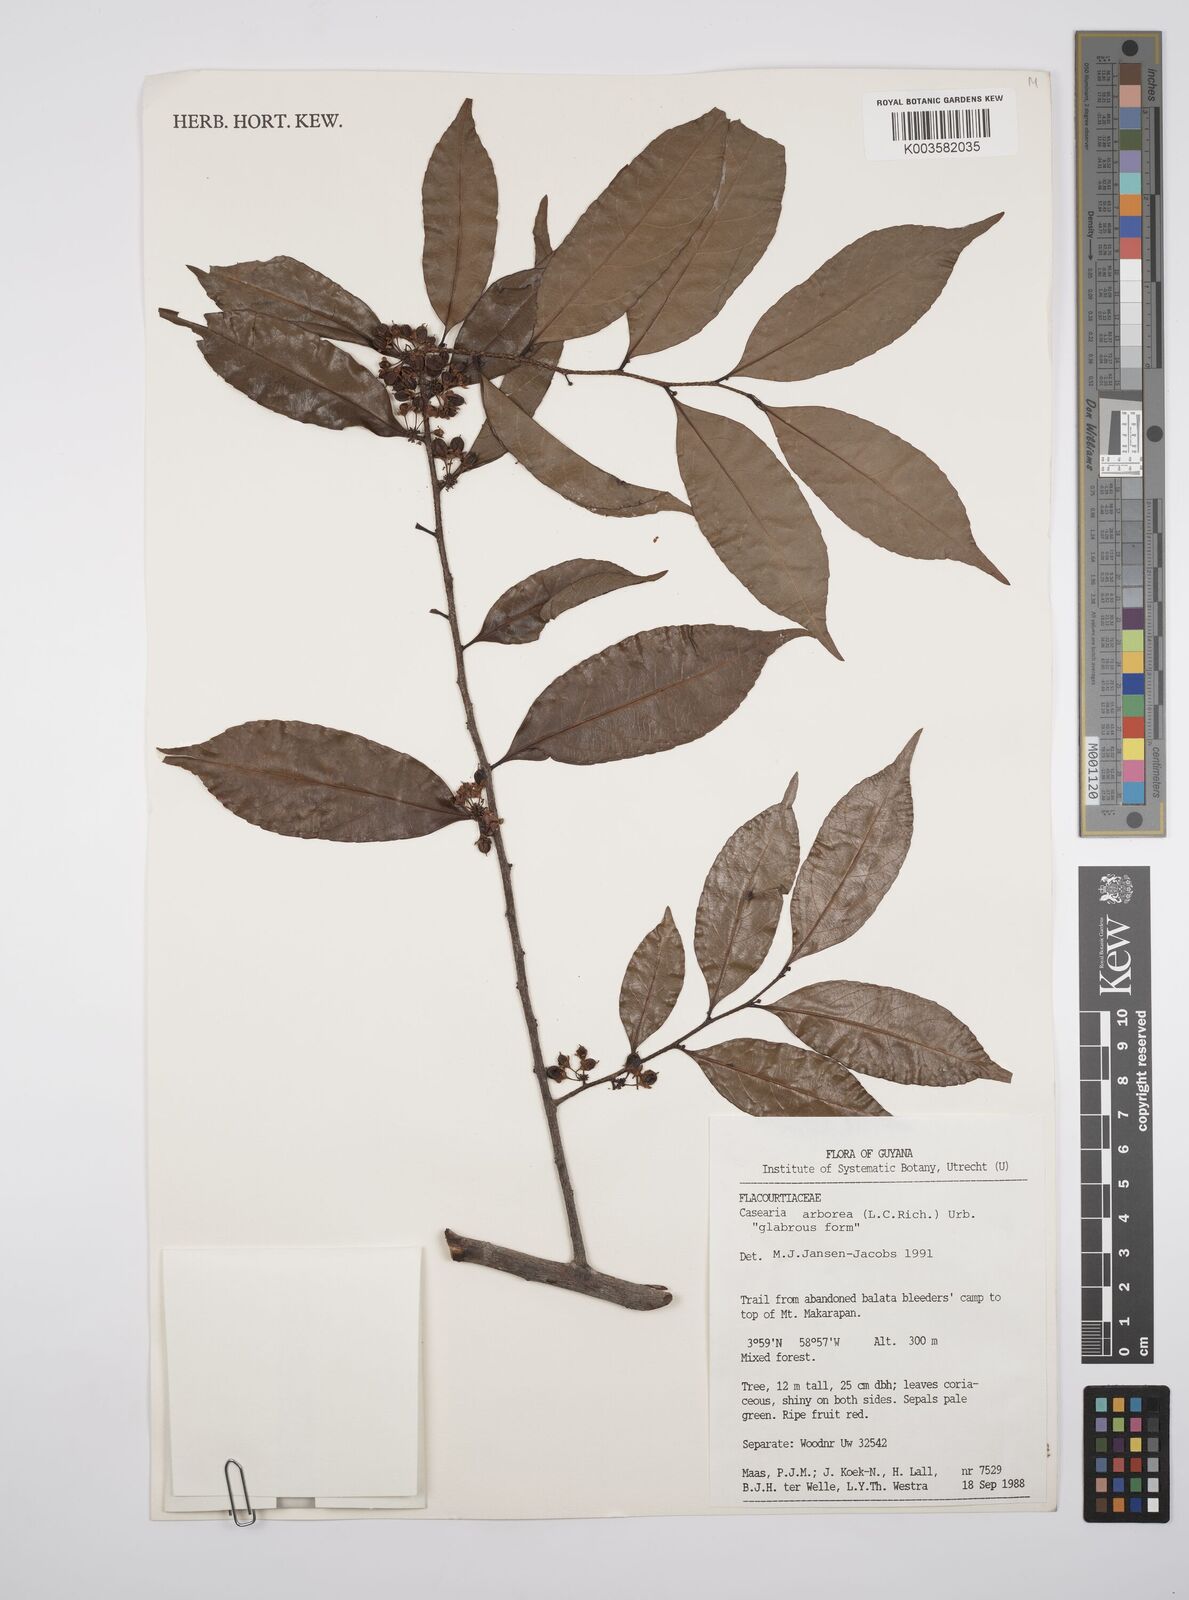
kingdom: Plantae
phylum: Tracheophyta
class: Magnoliopsida
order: Malpighiales
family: Salicaceae
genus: Casearia
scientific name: Casearia arborea
